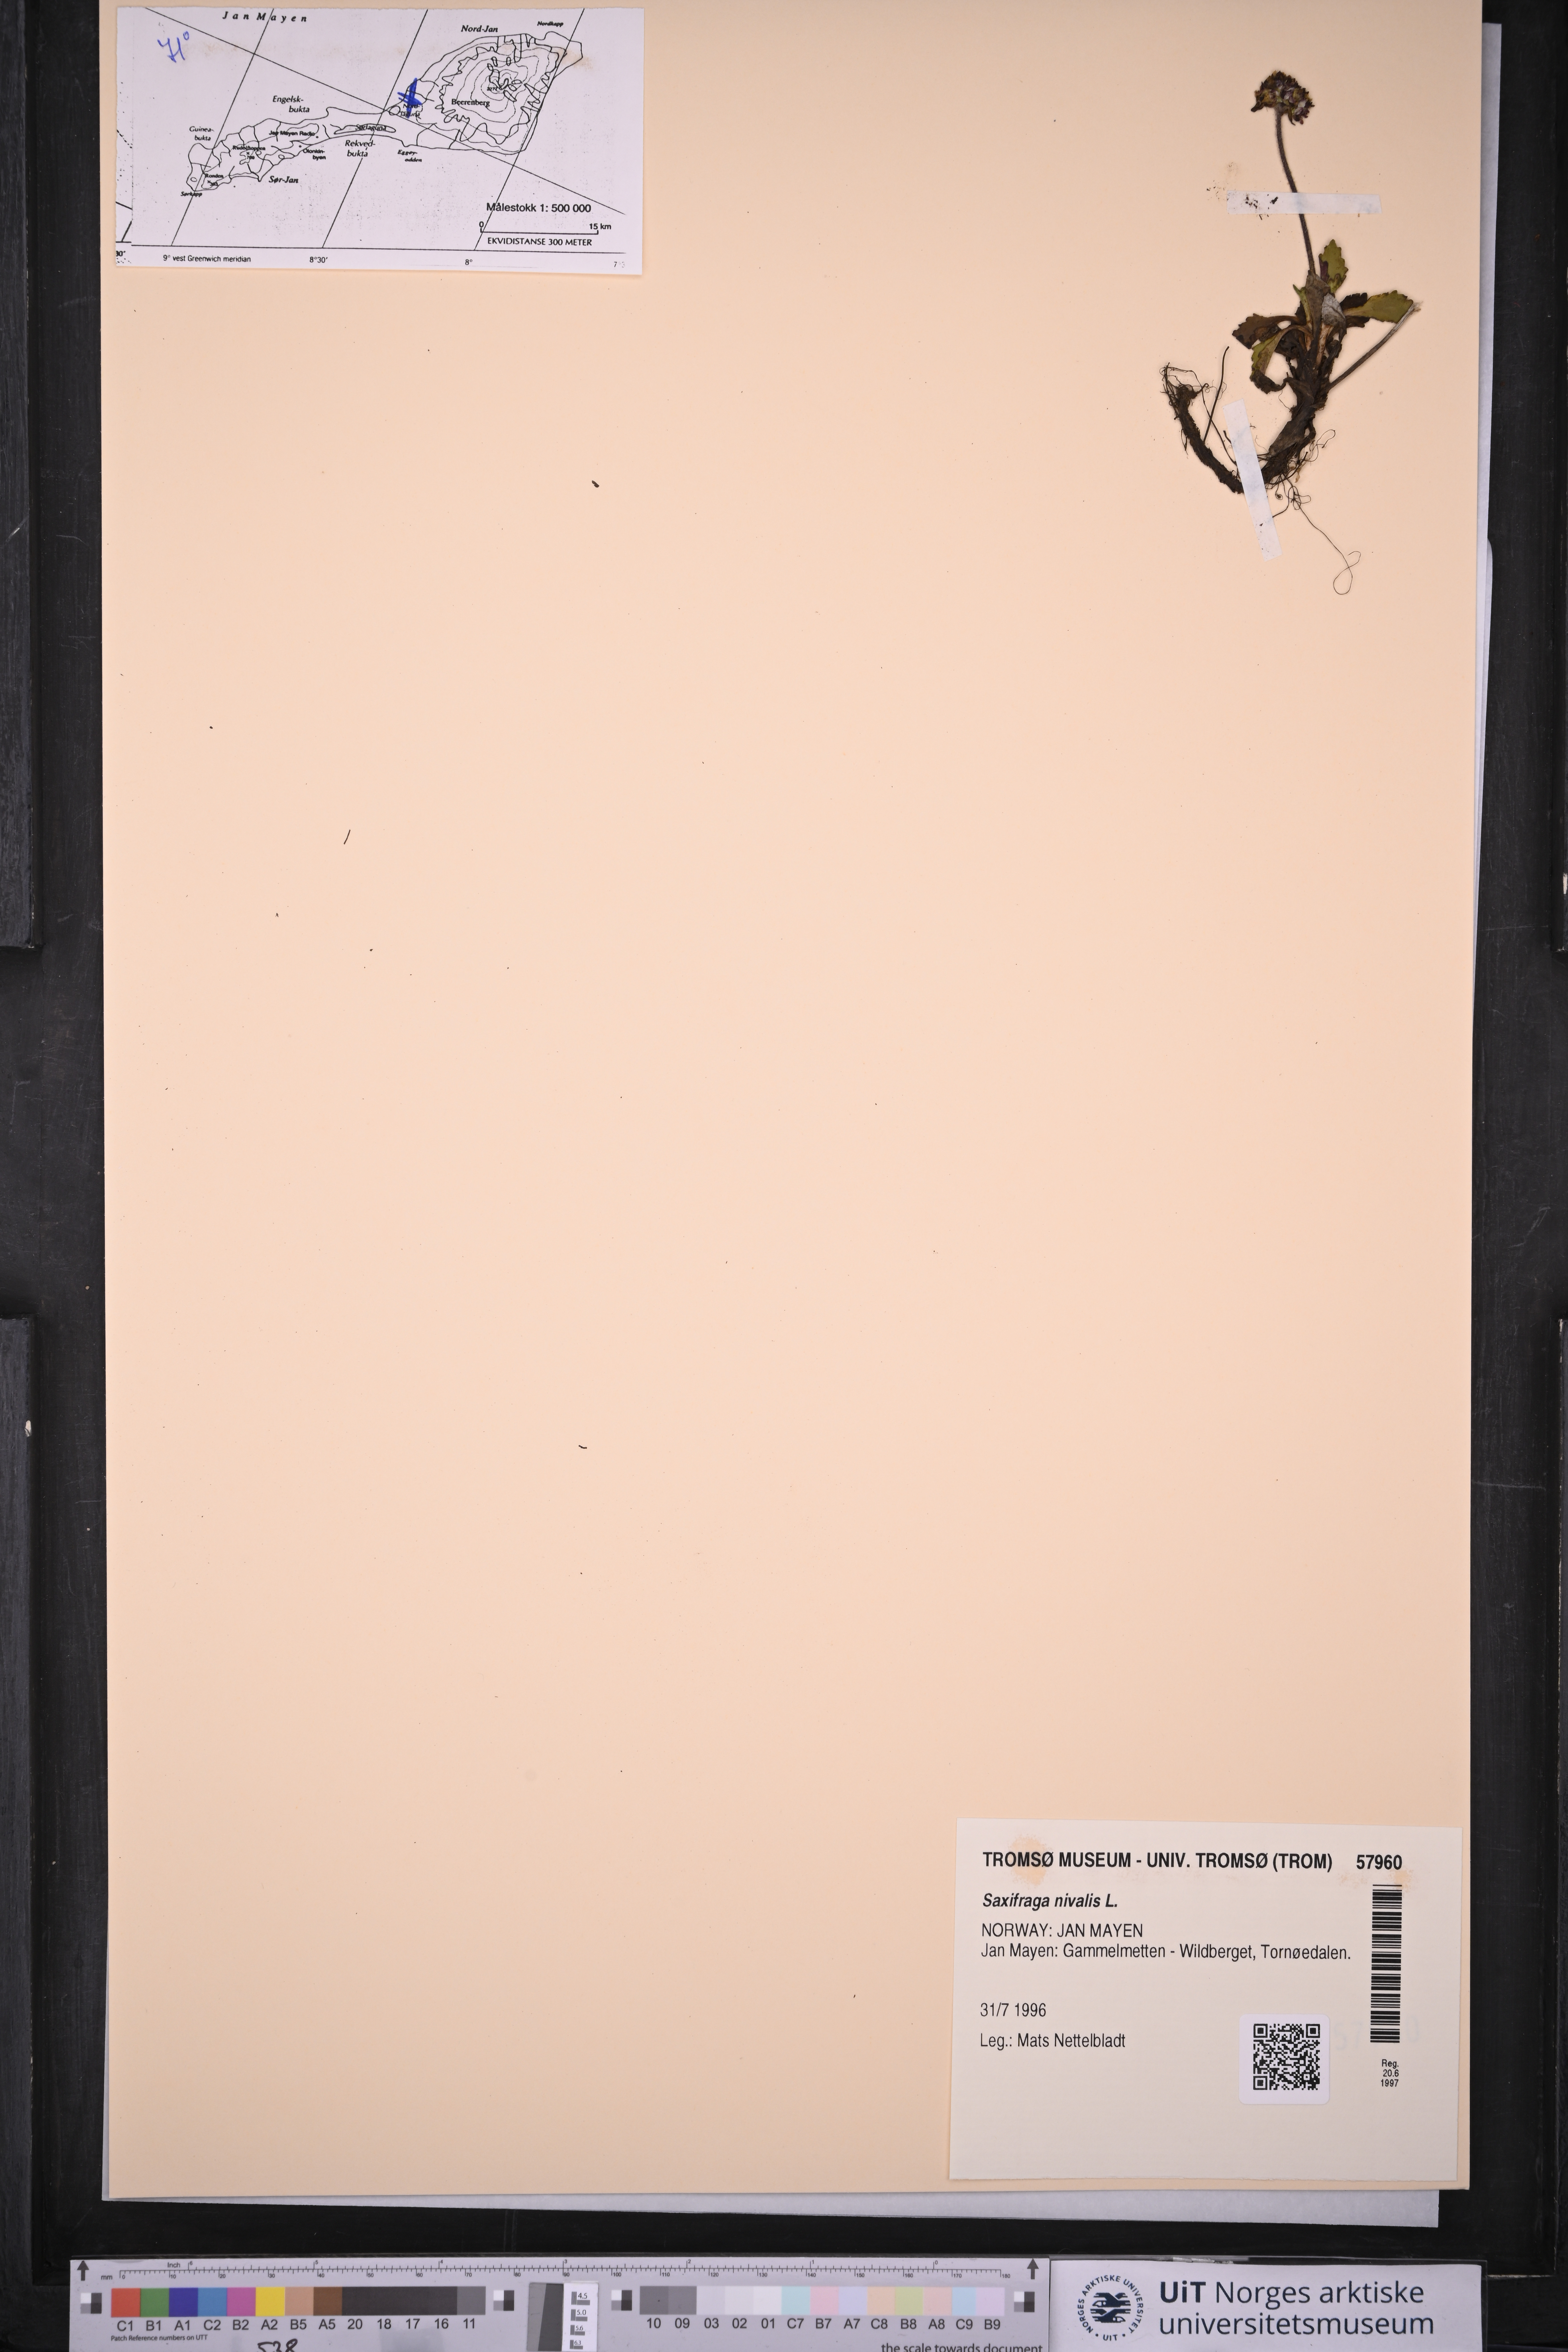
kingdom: Plantae
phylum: Tracheophyta
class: Magnoliopsida
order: Saxifragales
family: Saxifragaceae
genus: Micranthes
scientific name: Micranthes nivalis
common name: Alpine saxifrage
